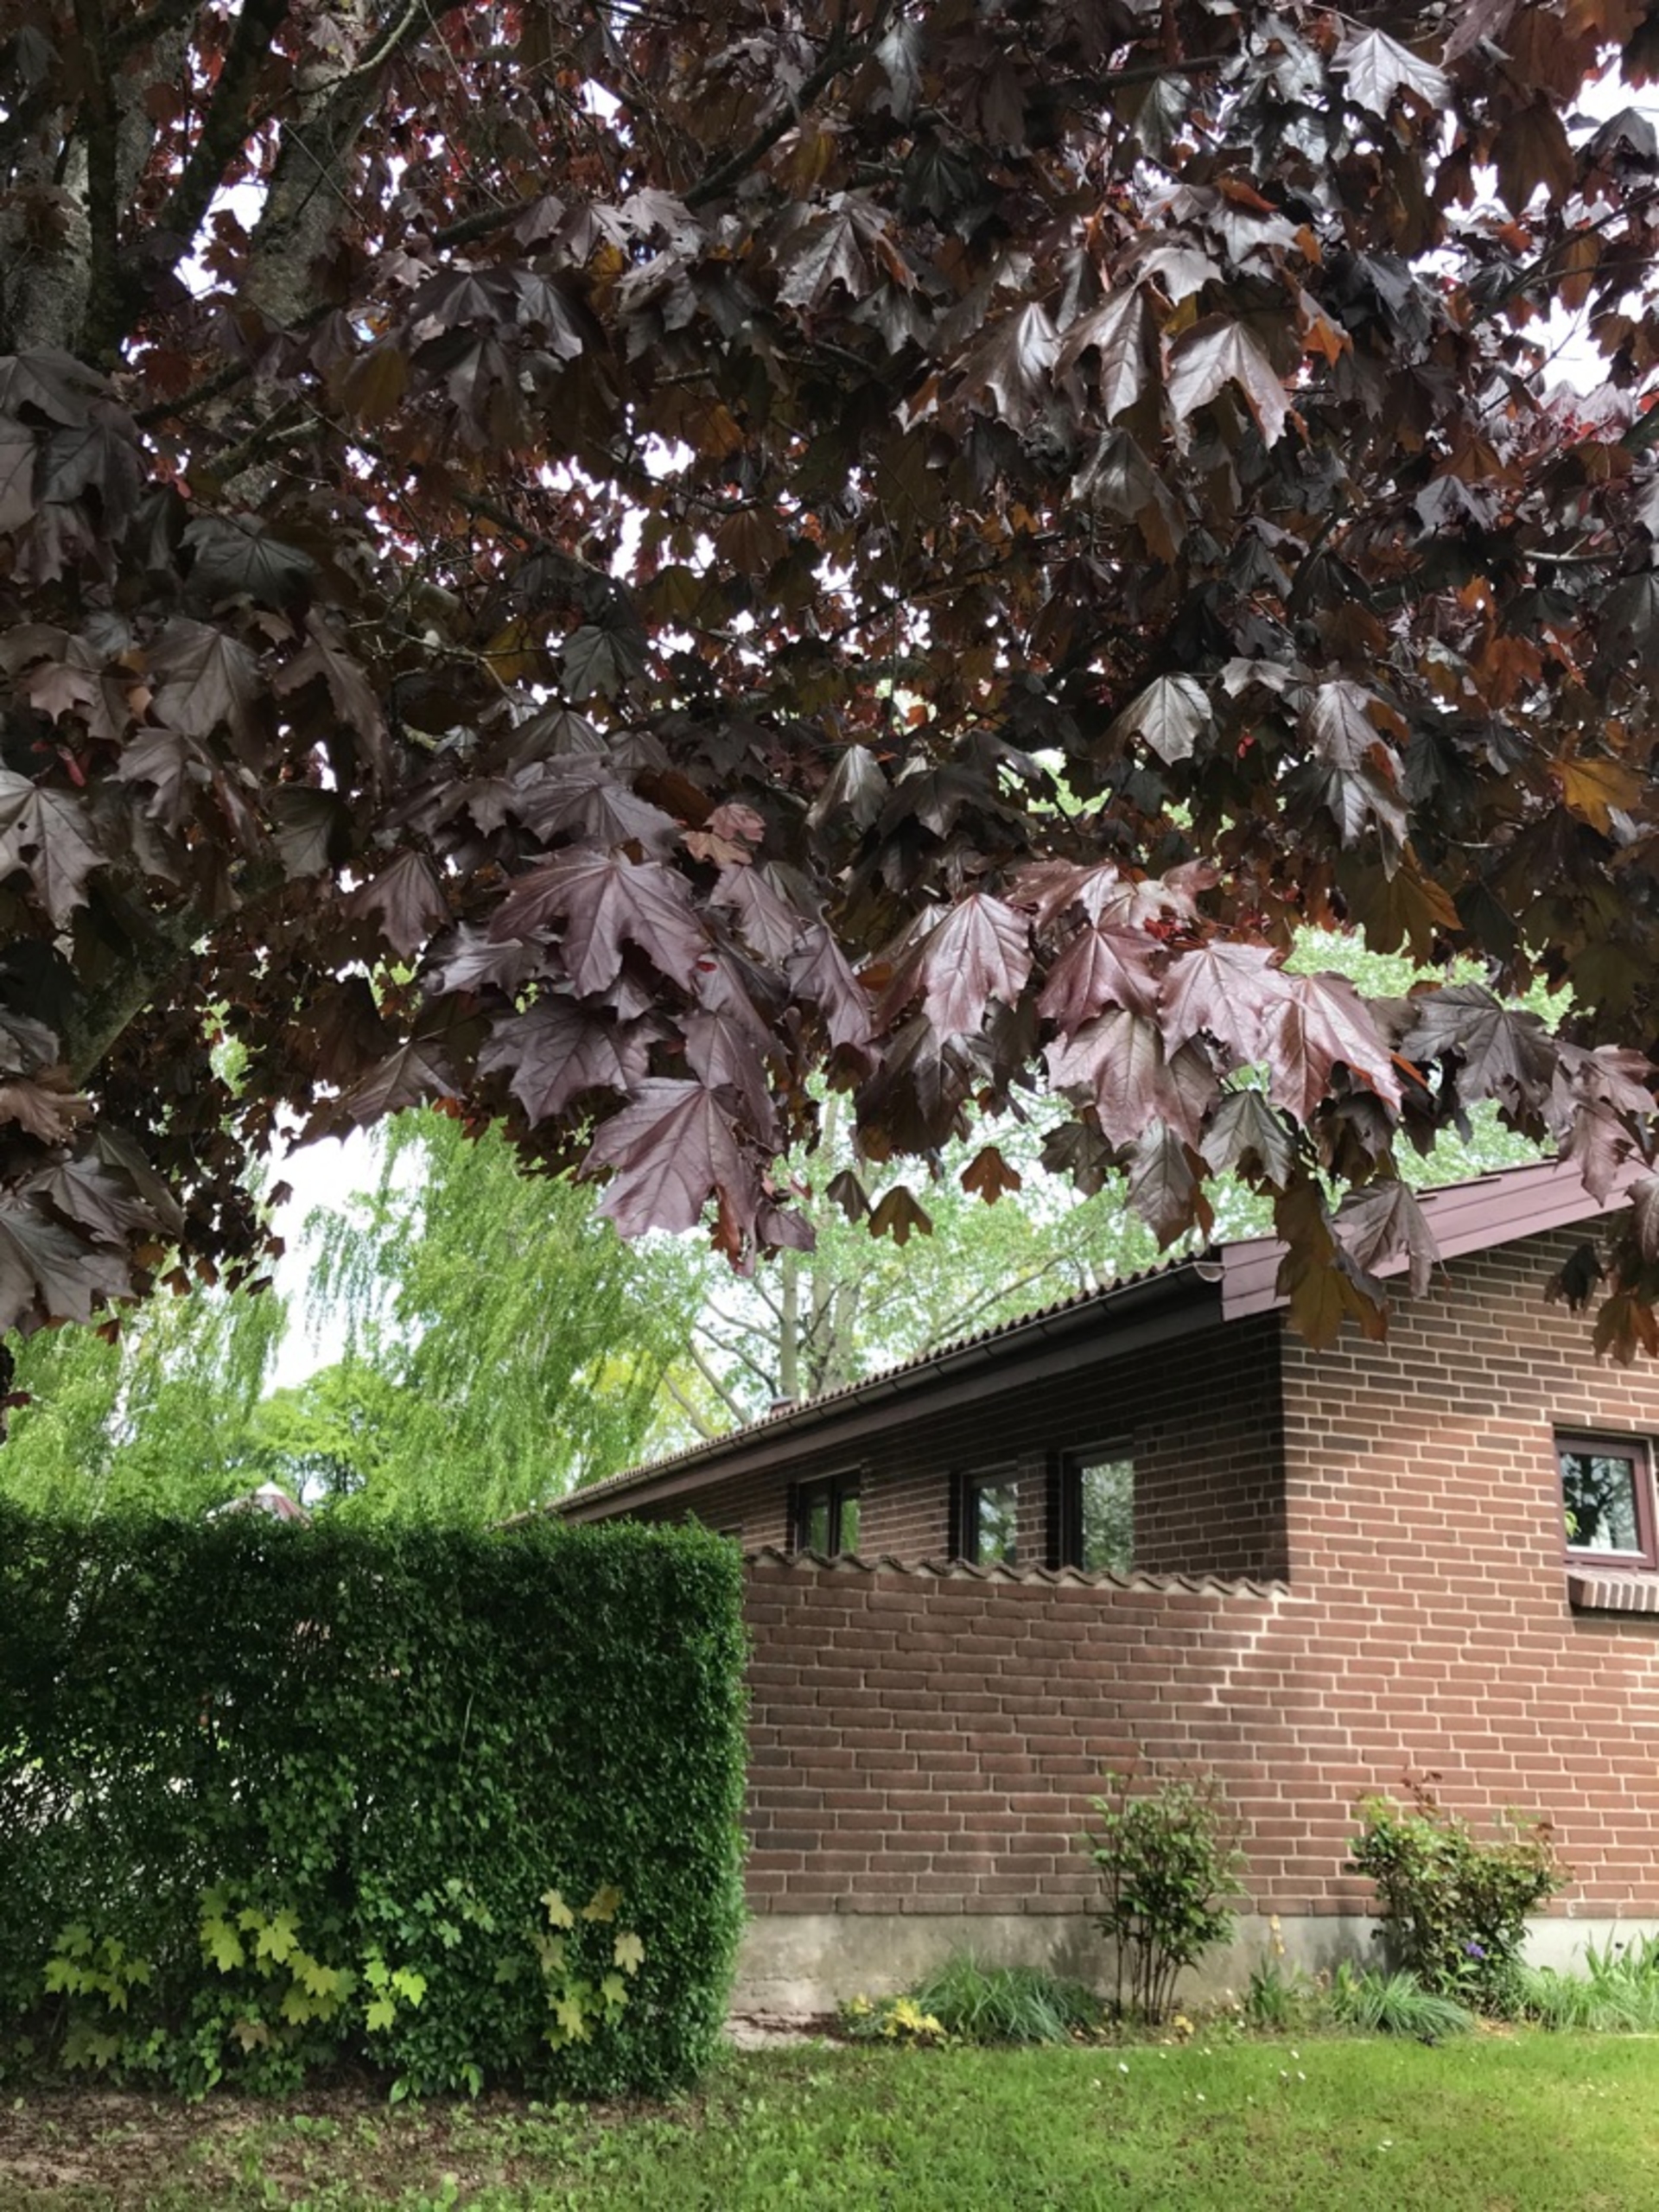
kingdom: Plantae
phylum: Tracheophyta
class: Magnoliopsida
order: Sapindales
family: Sapindaceae
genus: Acer
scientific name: Acer platanoides
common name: Spids-løn
